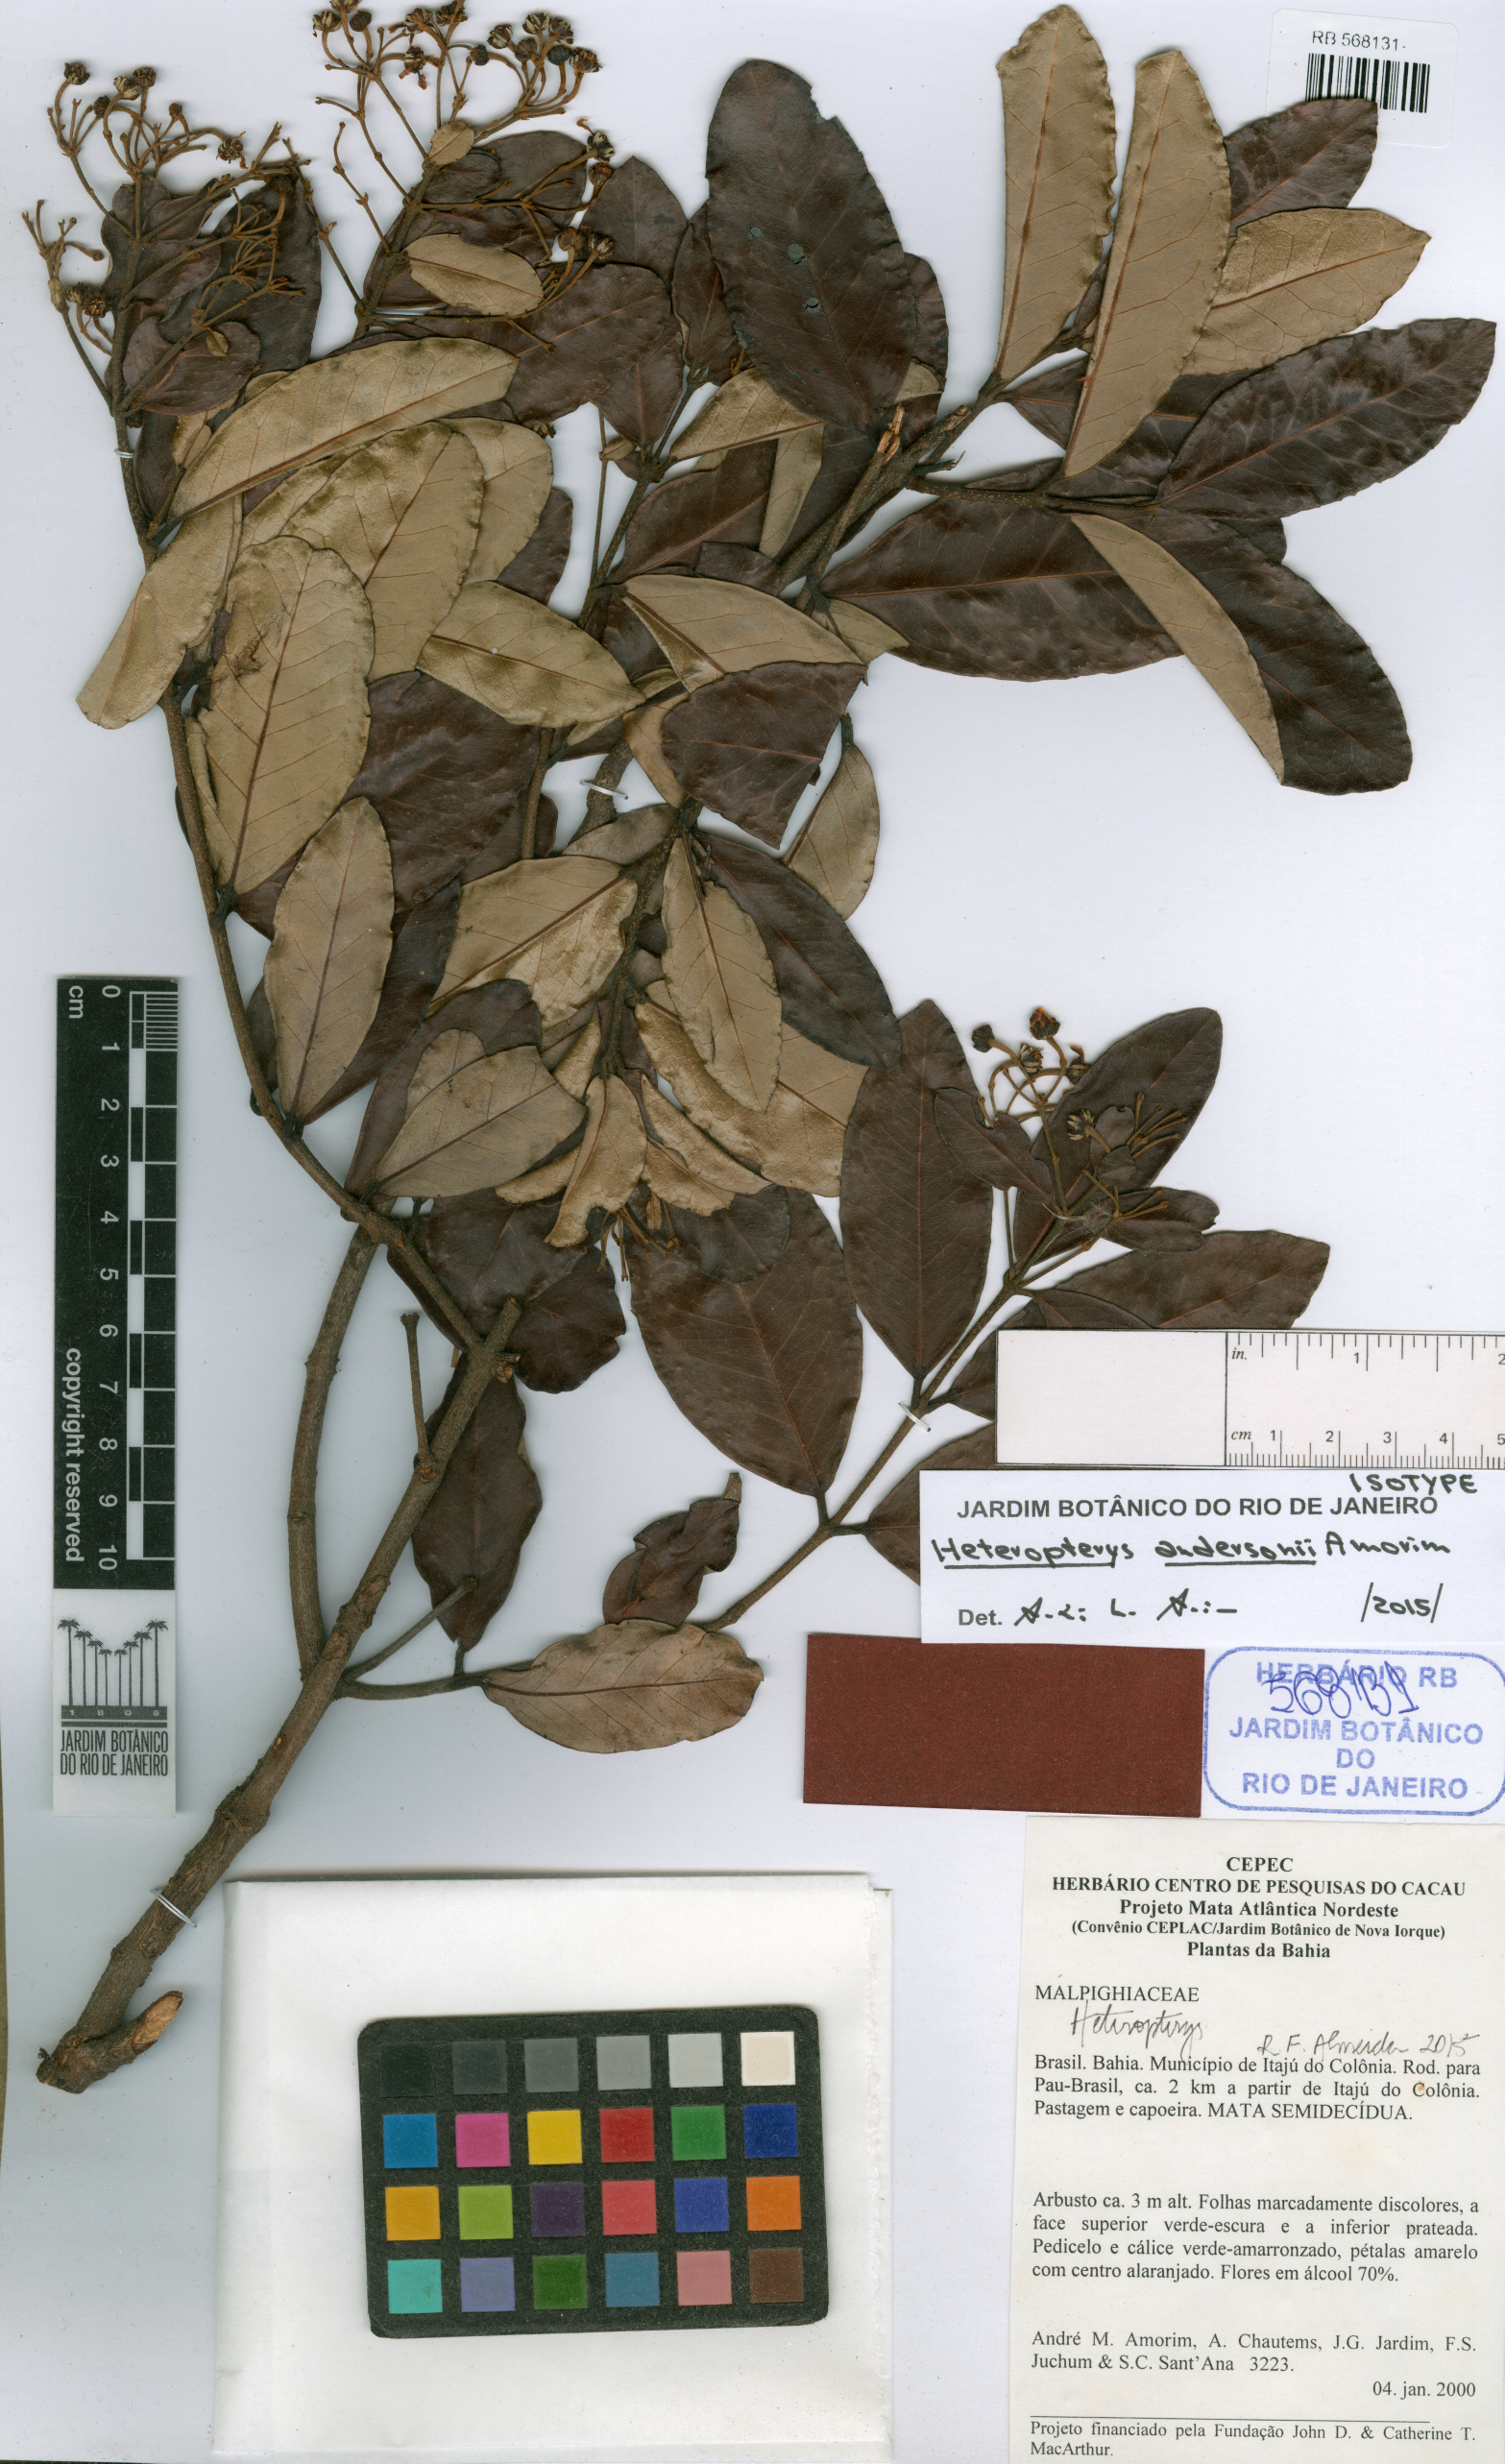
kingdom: Plantae
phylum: Tracheophyta
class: Magnoliopsida
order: Malpighiales
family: Malpighiaceae
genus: Heteropterys
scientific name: Heteropterys andersonii
